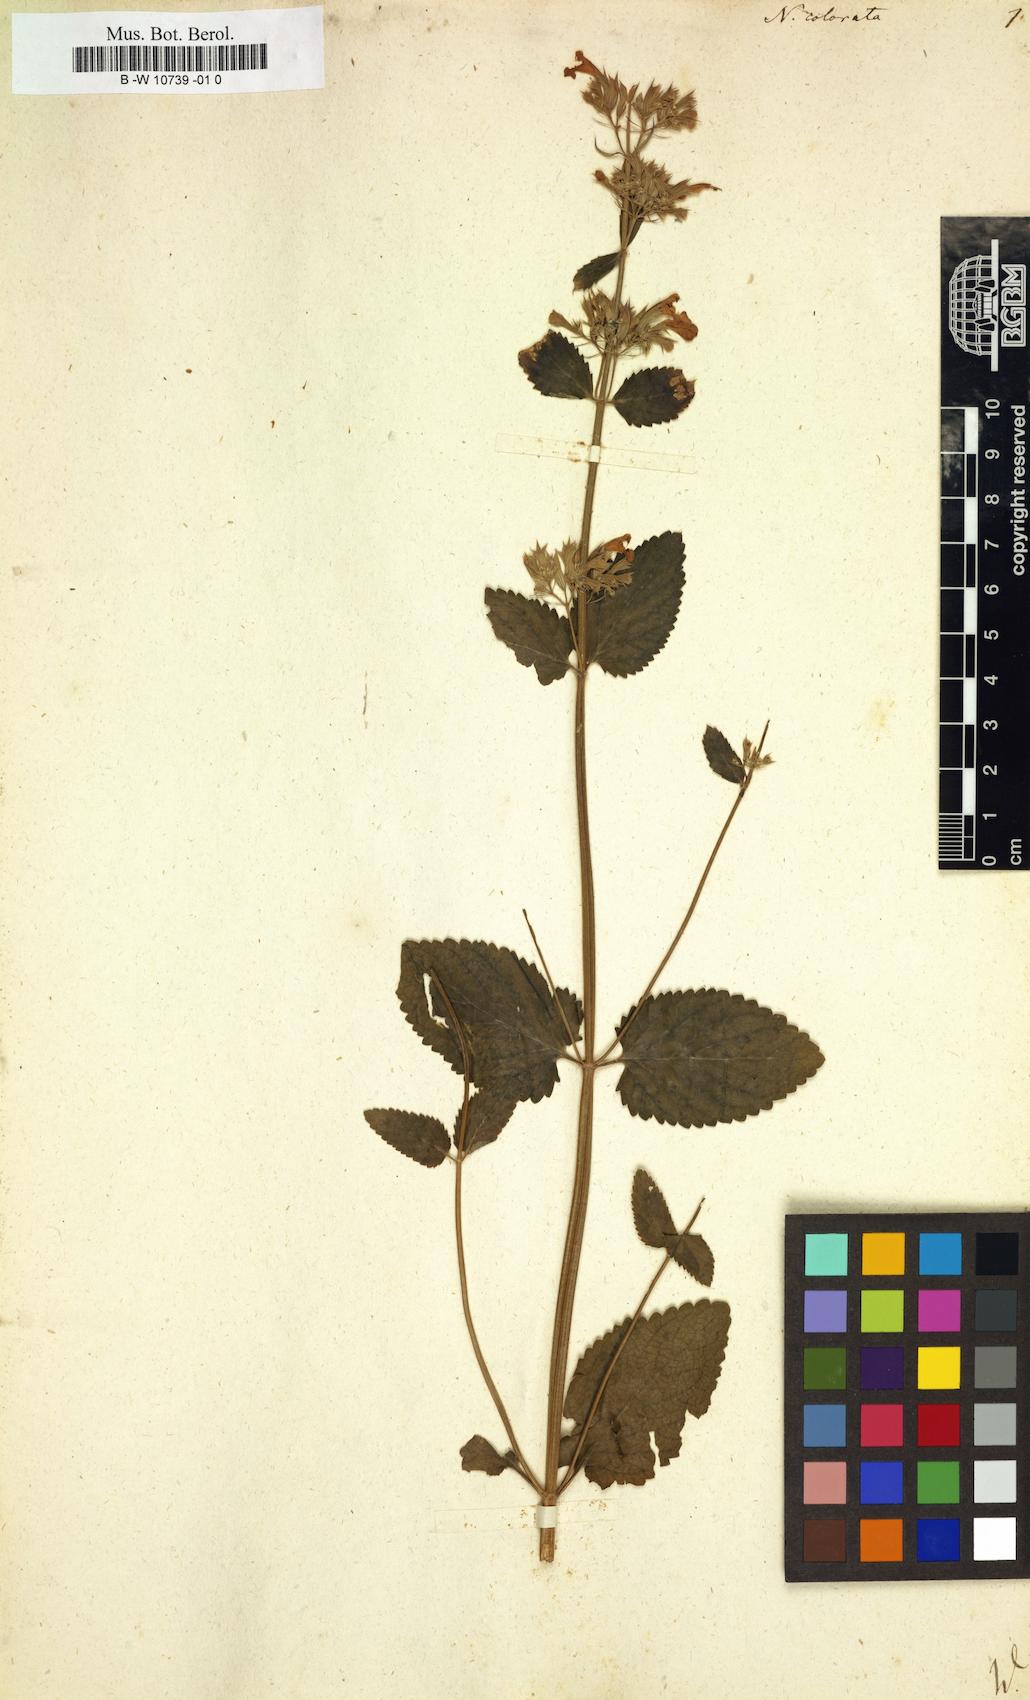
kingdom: Plantae
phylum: Tracheophyta
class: Magnoliopsida
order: Lamiales
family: Lamiaceae
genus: Nepeta
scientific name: Nepeta grandiflora
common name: Caucasus catmint
